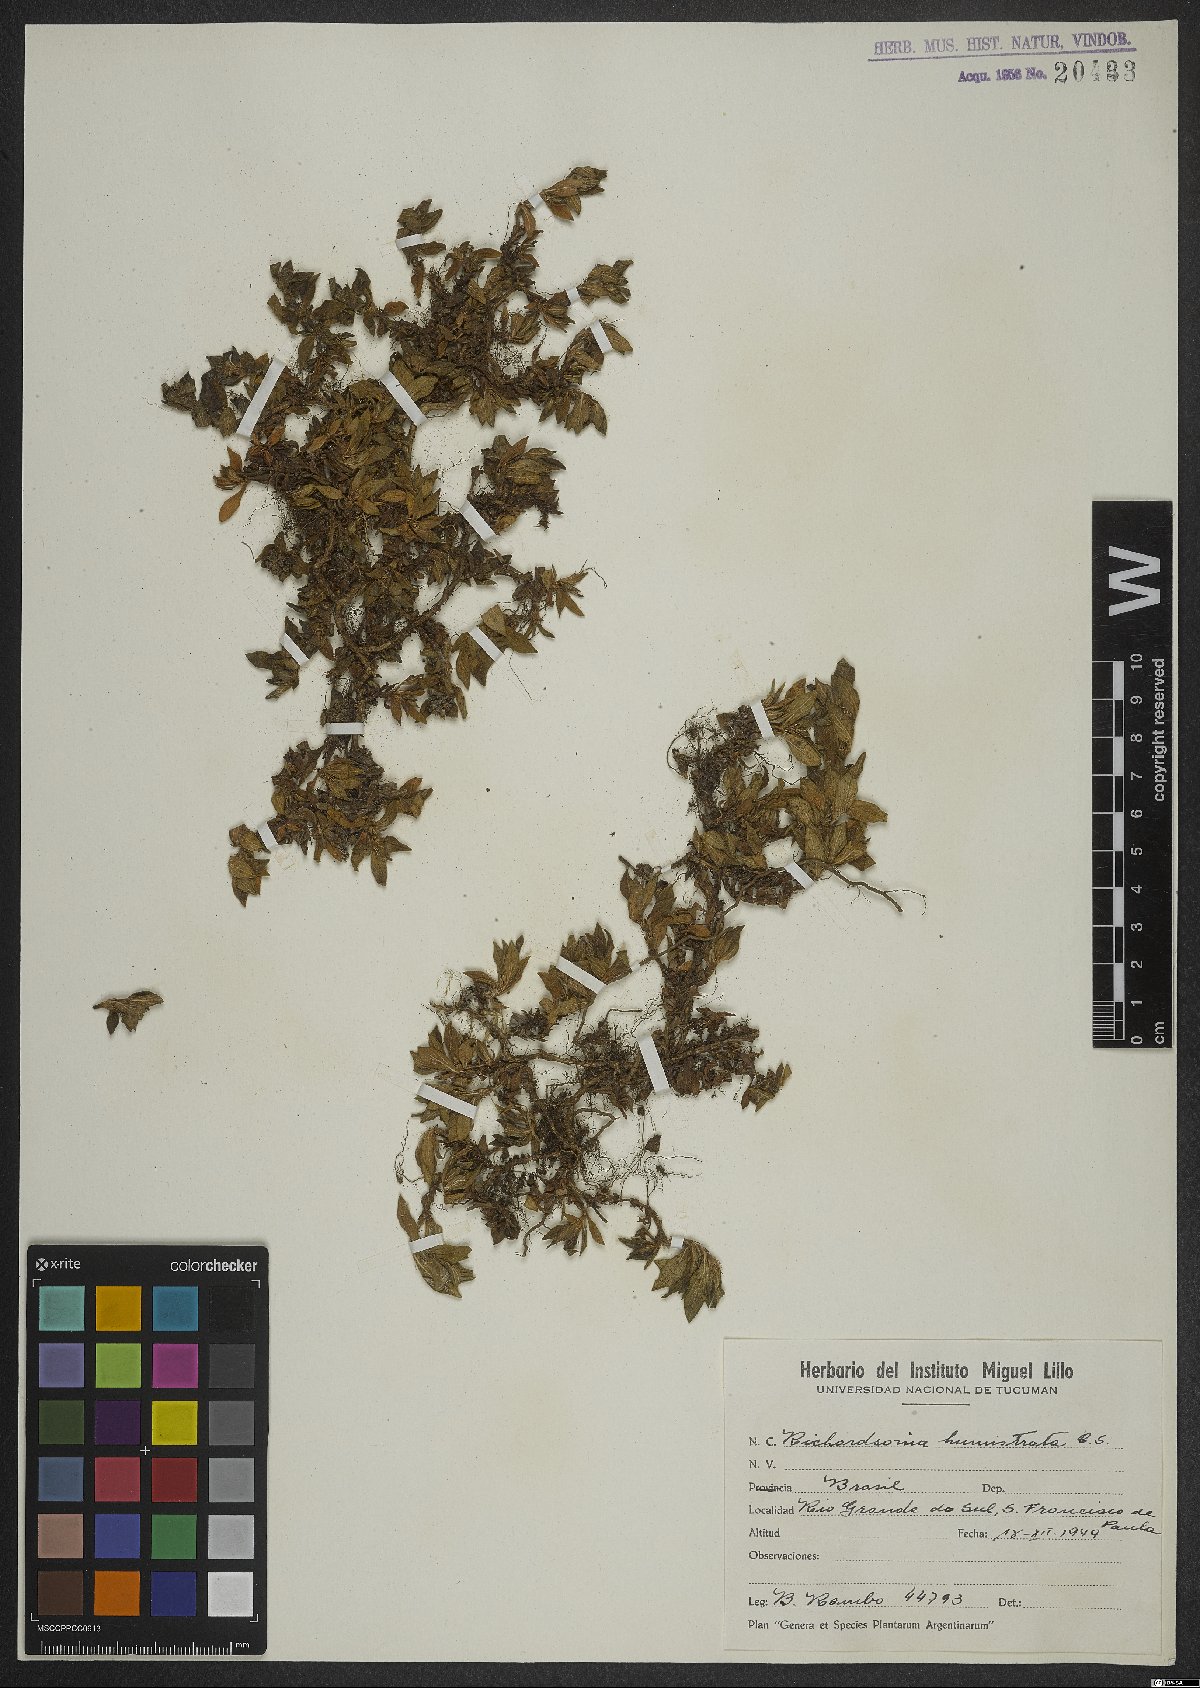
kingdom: Plantae
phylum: Tracheophyta
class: Magnoliopsida
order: Gentianales
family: Rubiaceae
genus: Richardia
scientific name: Richardia humistrata
